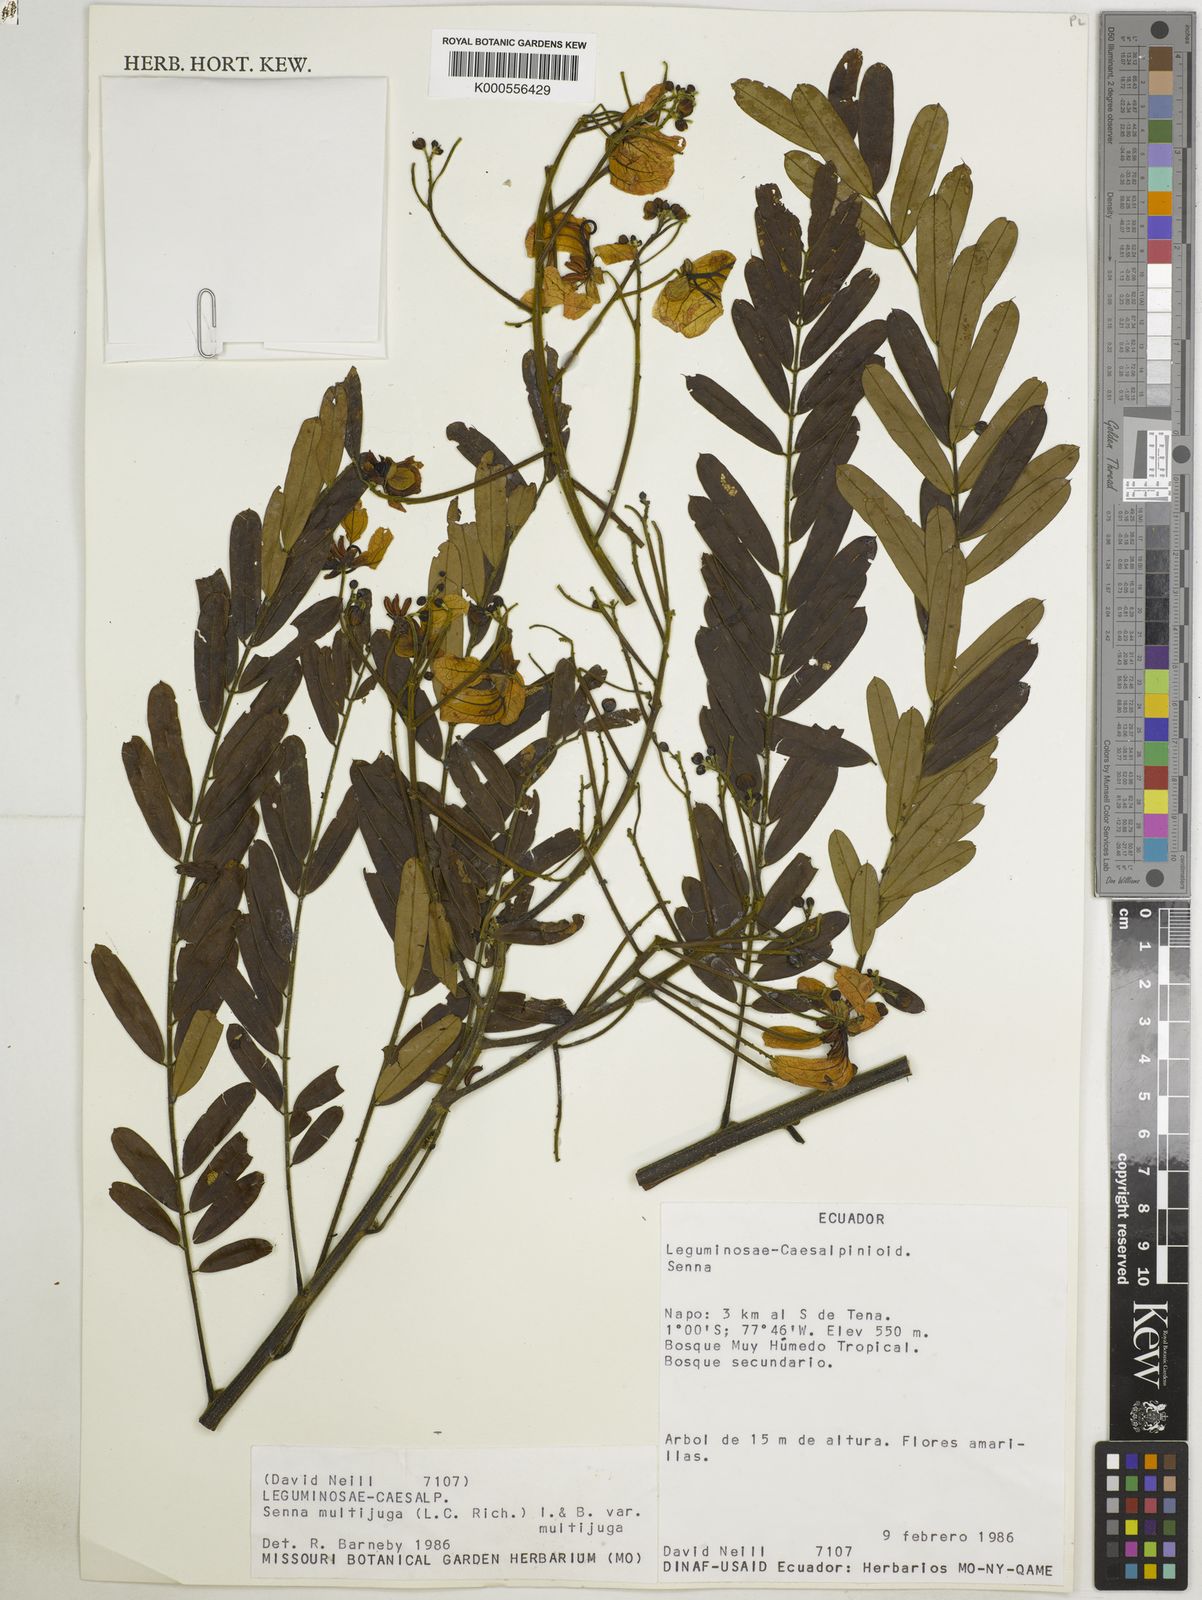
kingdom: Plantae
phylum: Tracheophyta
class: Magnoliopsida
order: Fabales
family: Fabaceae
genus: Senna
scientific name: Senna multijuga
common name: False sicklepod
